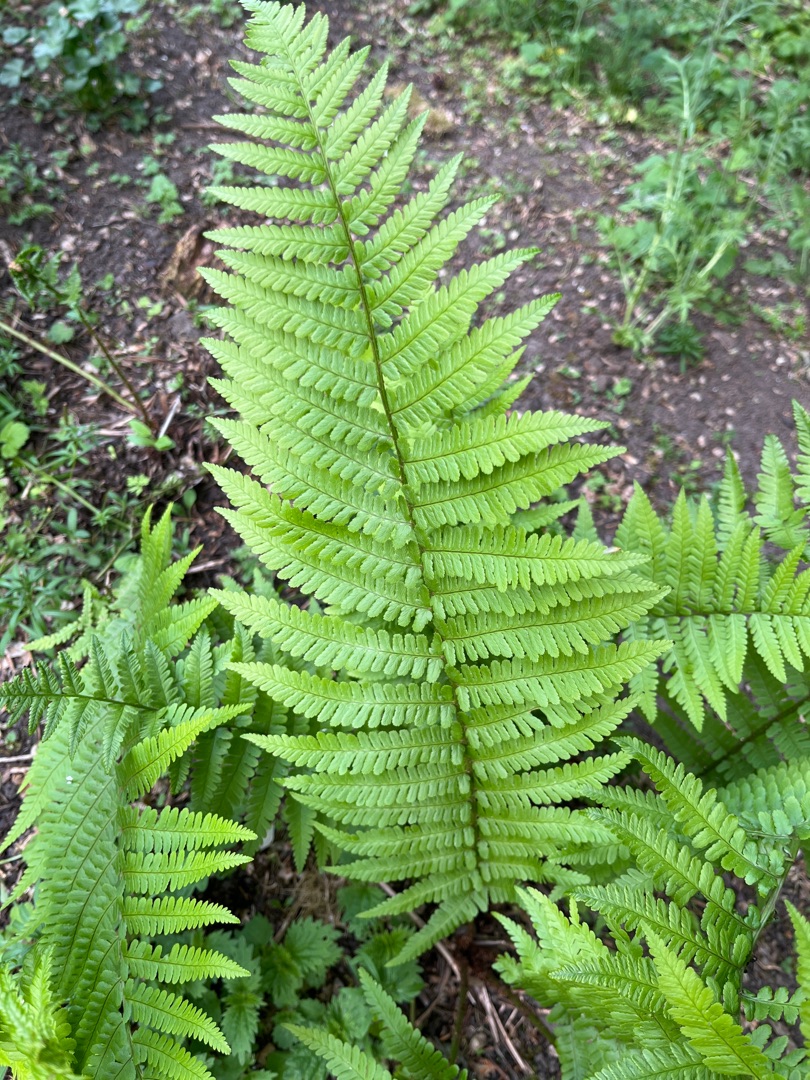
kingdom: Plantae
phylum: Tracheophyta
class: Polypodiopsida
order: Polypodiales
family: Dryopteridaceae
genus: Dryopteris
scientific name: Dryopteris filix-mas
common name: Almindelig mangeløv
